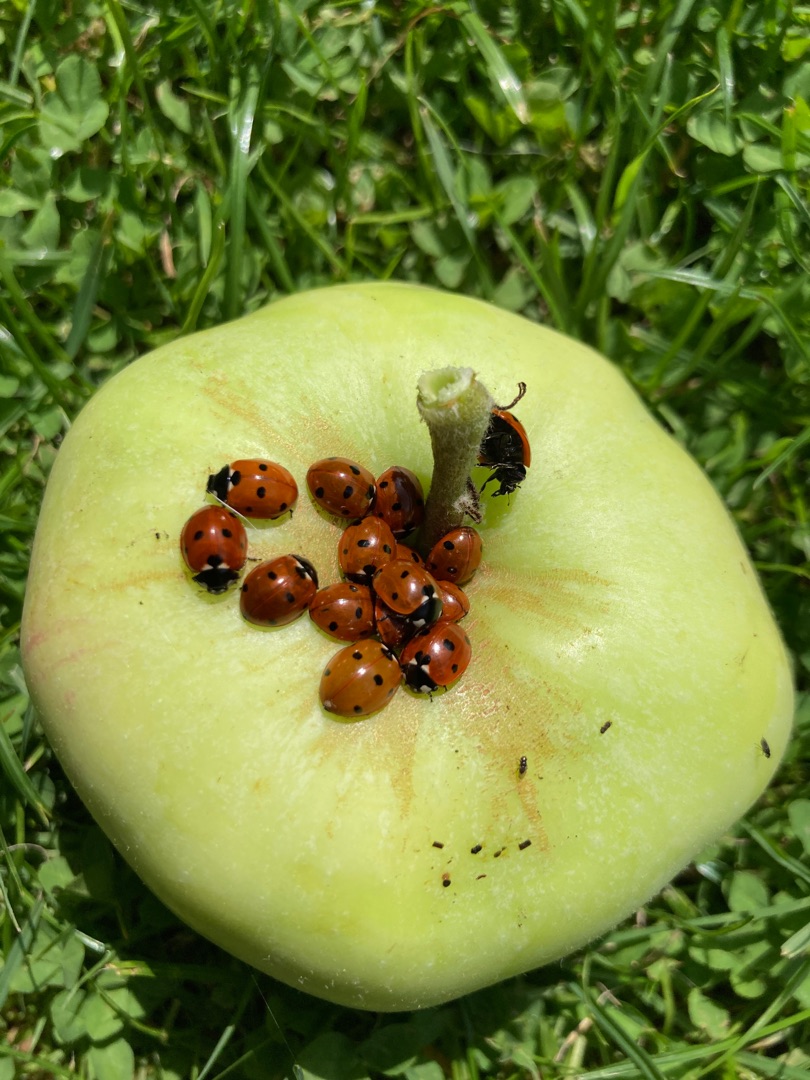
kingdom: Animalia
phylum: Arthropoda
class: Insecta
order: Coleoptera
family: Coccinellidae
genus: Coccinella
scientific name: Coccinella septempunctata
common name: Syvplettet mariehøne
